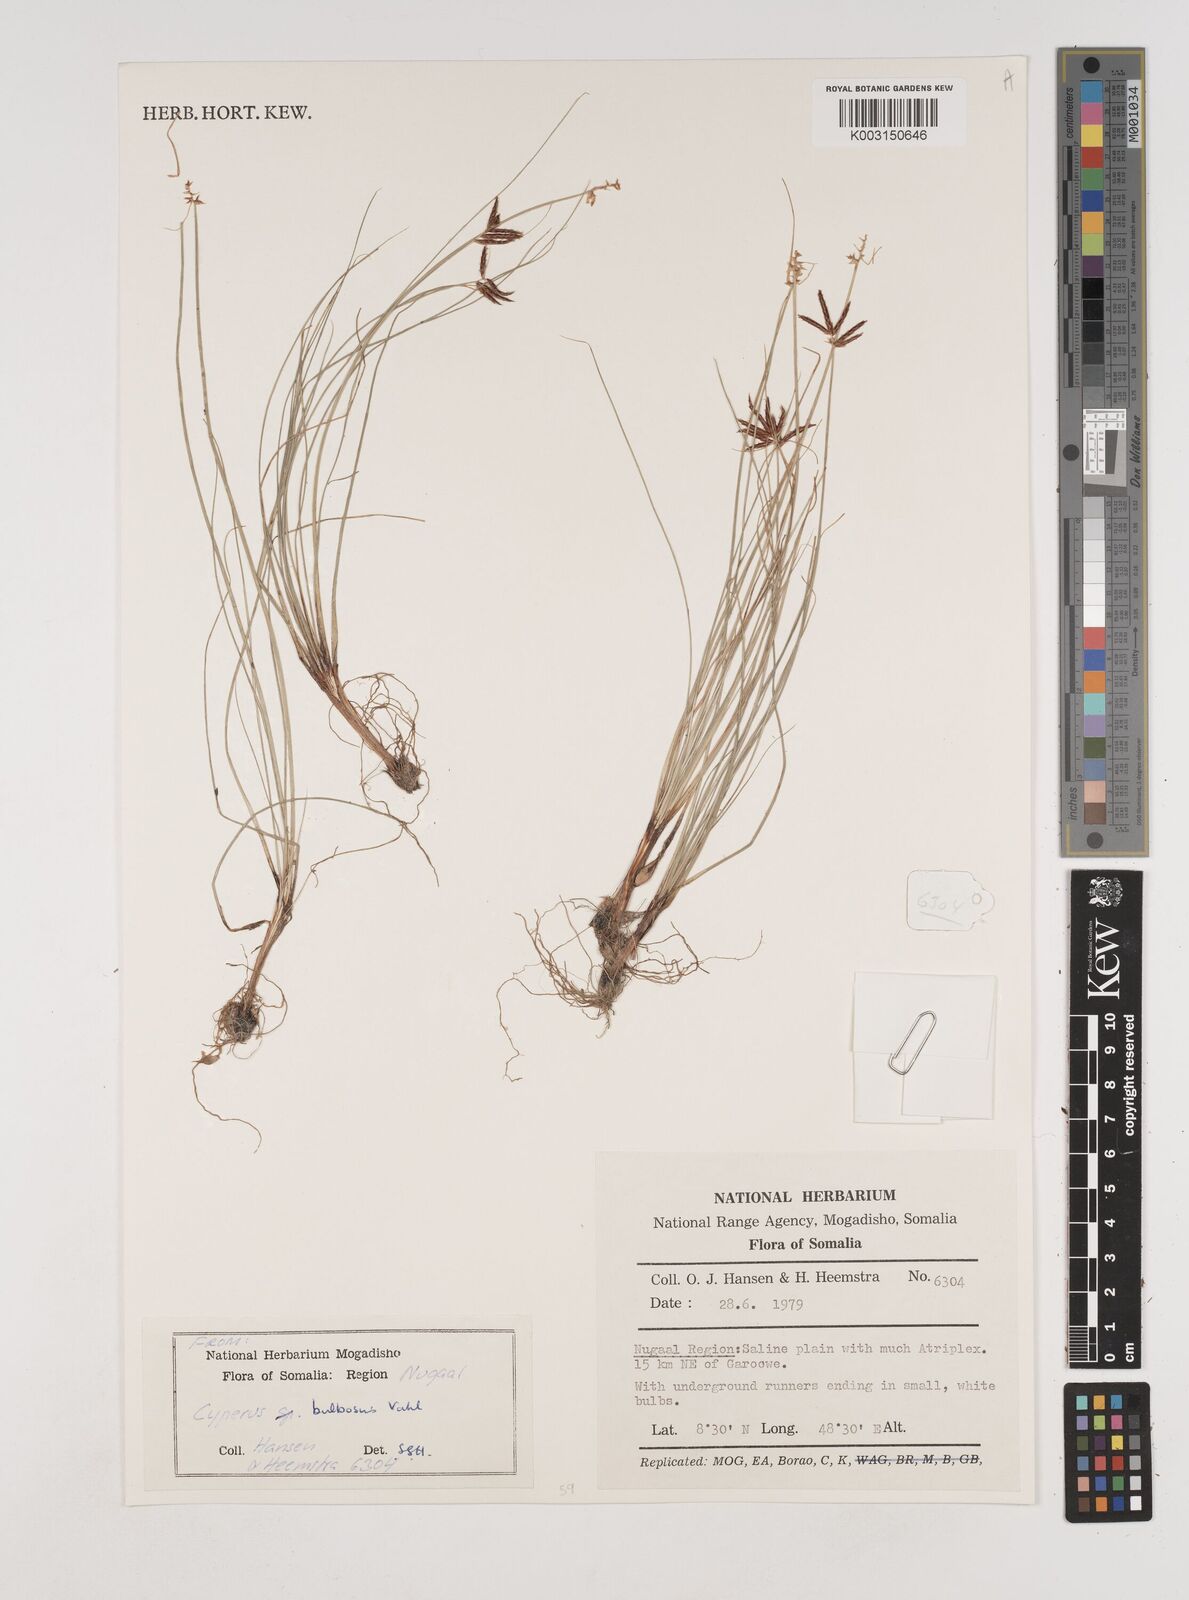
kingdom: Plantae
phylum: Tracheophyta
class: Liliopsida
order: Poales
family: Cyperaceae
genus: Cyperus
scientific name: Cyperus bulbosus
